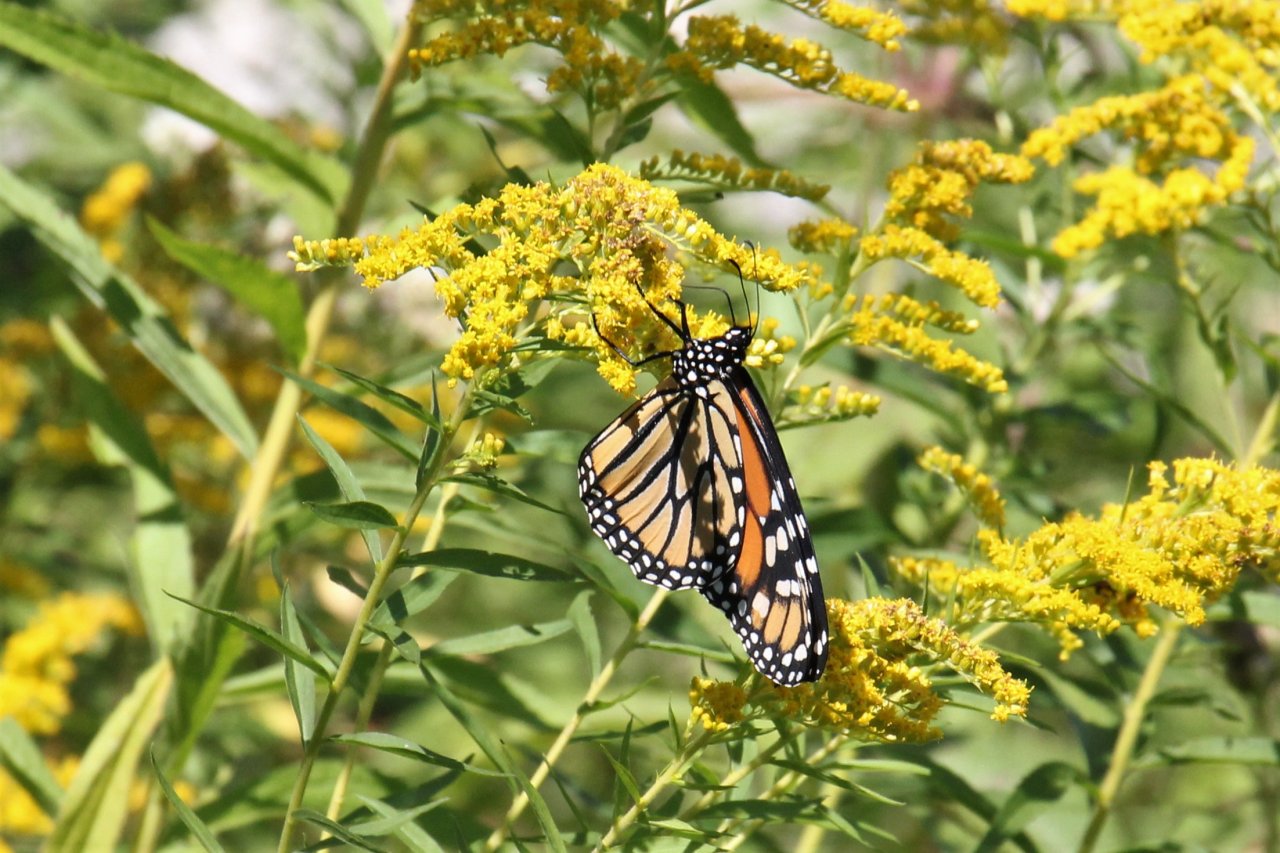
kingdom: Animalia
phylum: Arthropoda
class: Insecta
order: Lepidoptera
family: Nymphalidae
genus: Danaus
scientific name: Danaus plexippus
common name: Monarch
